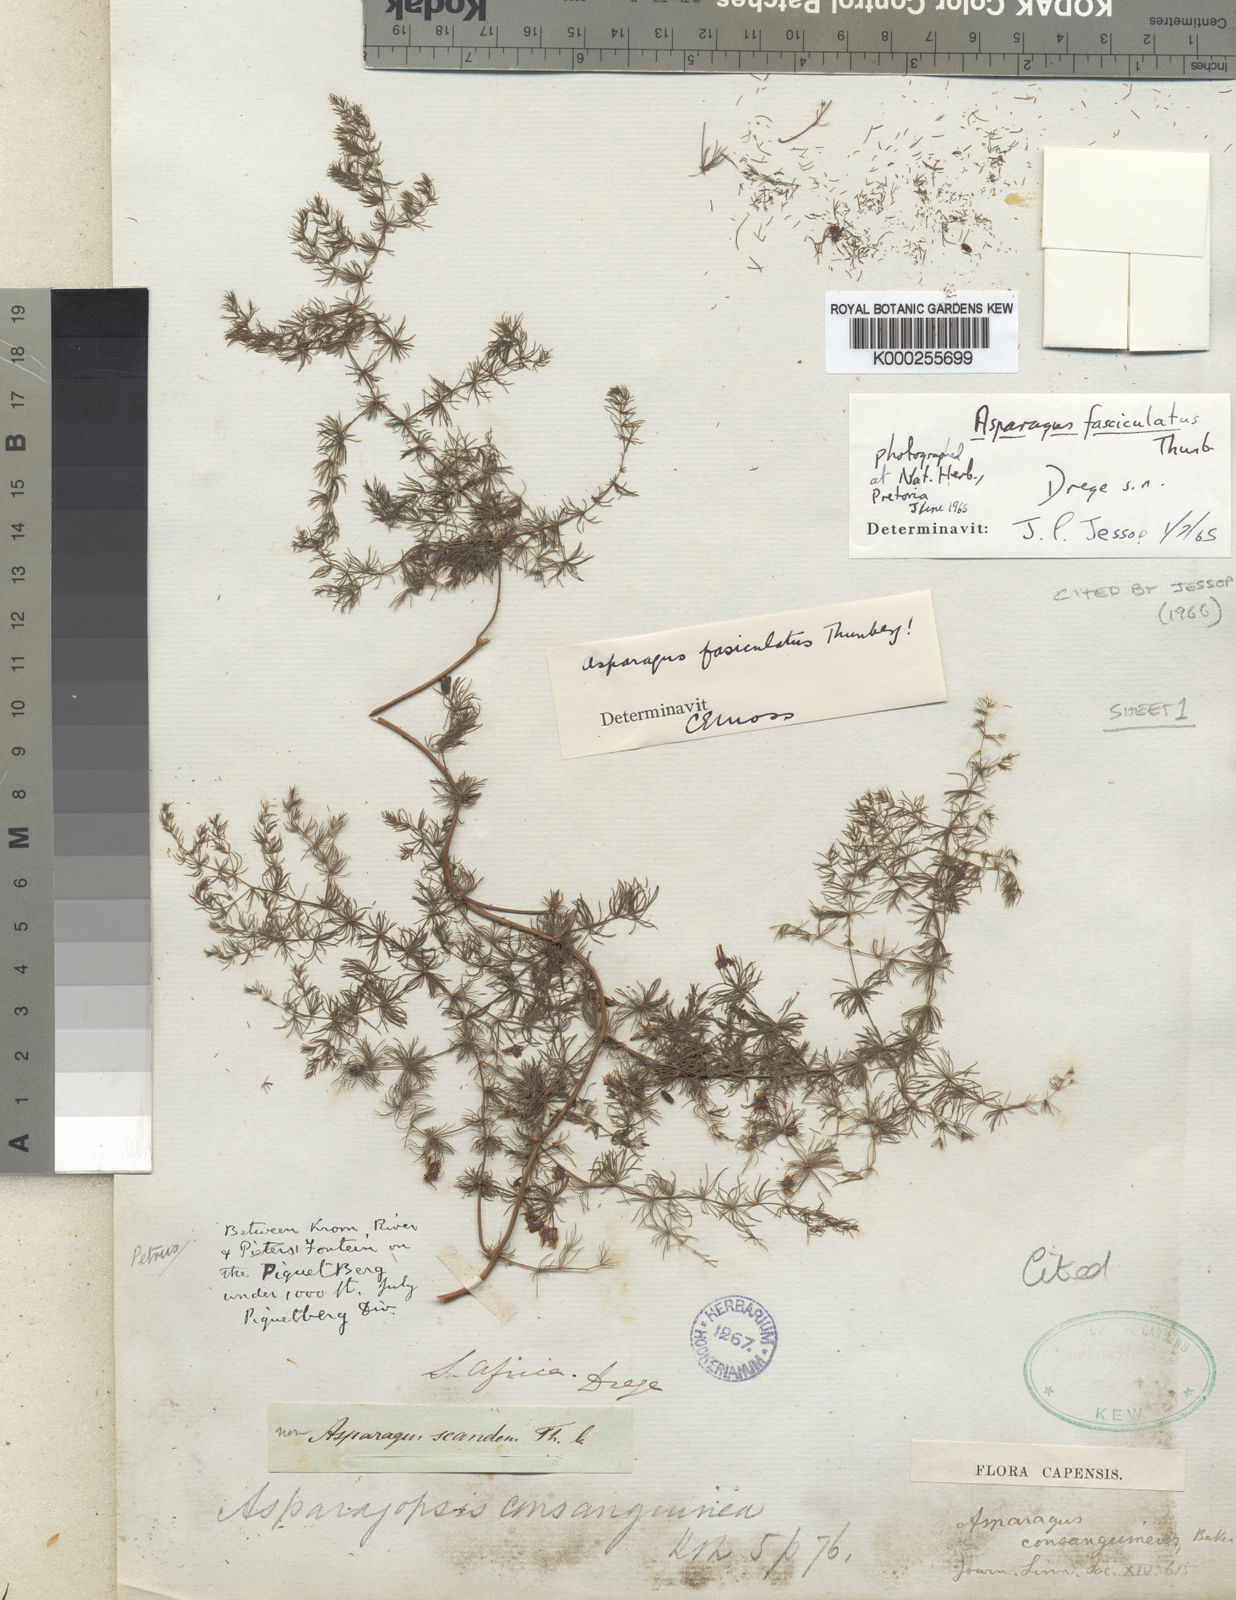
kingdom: Plantae
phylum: Tracheophyta
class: Liliopsida
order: Asparagales
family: Asparagaceae
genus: Asparagus
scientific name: Asparagus fasciculatus
